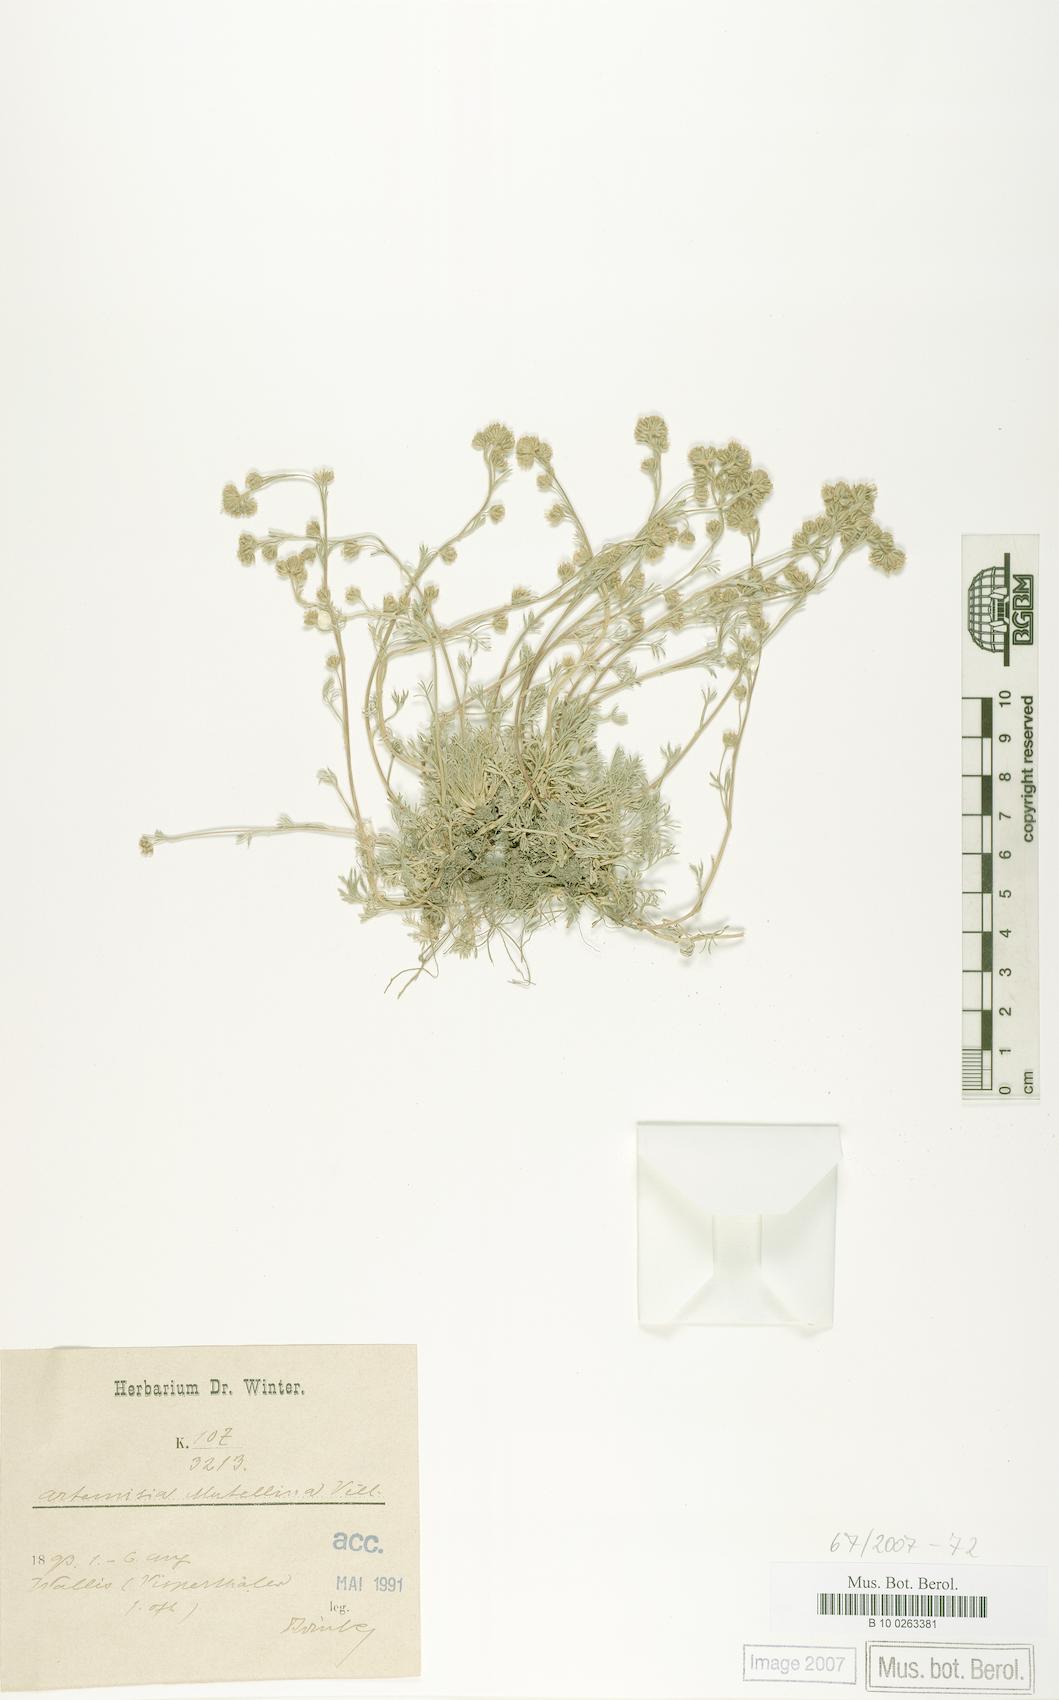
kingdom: Plantae
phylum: Tracheophyta
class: Magnoliopsida
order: Asterales
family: Asteraceae
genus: Artemisia
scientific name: Artemisia mutellina
